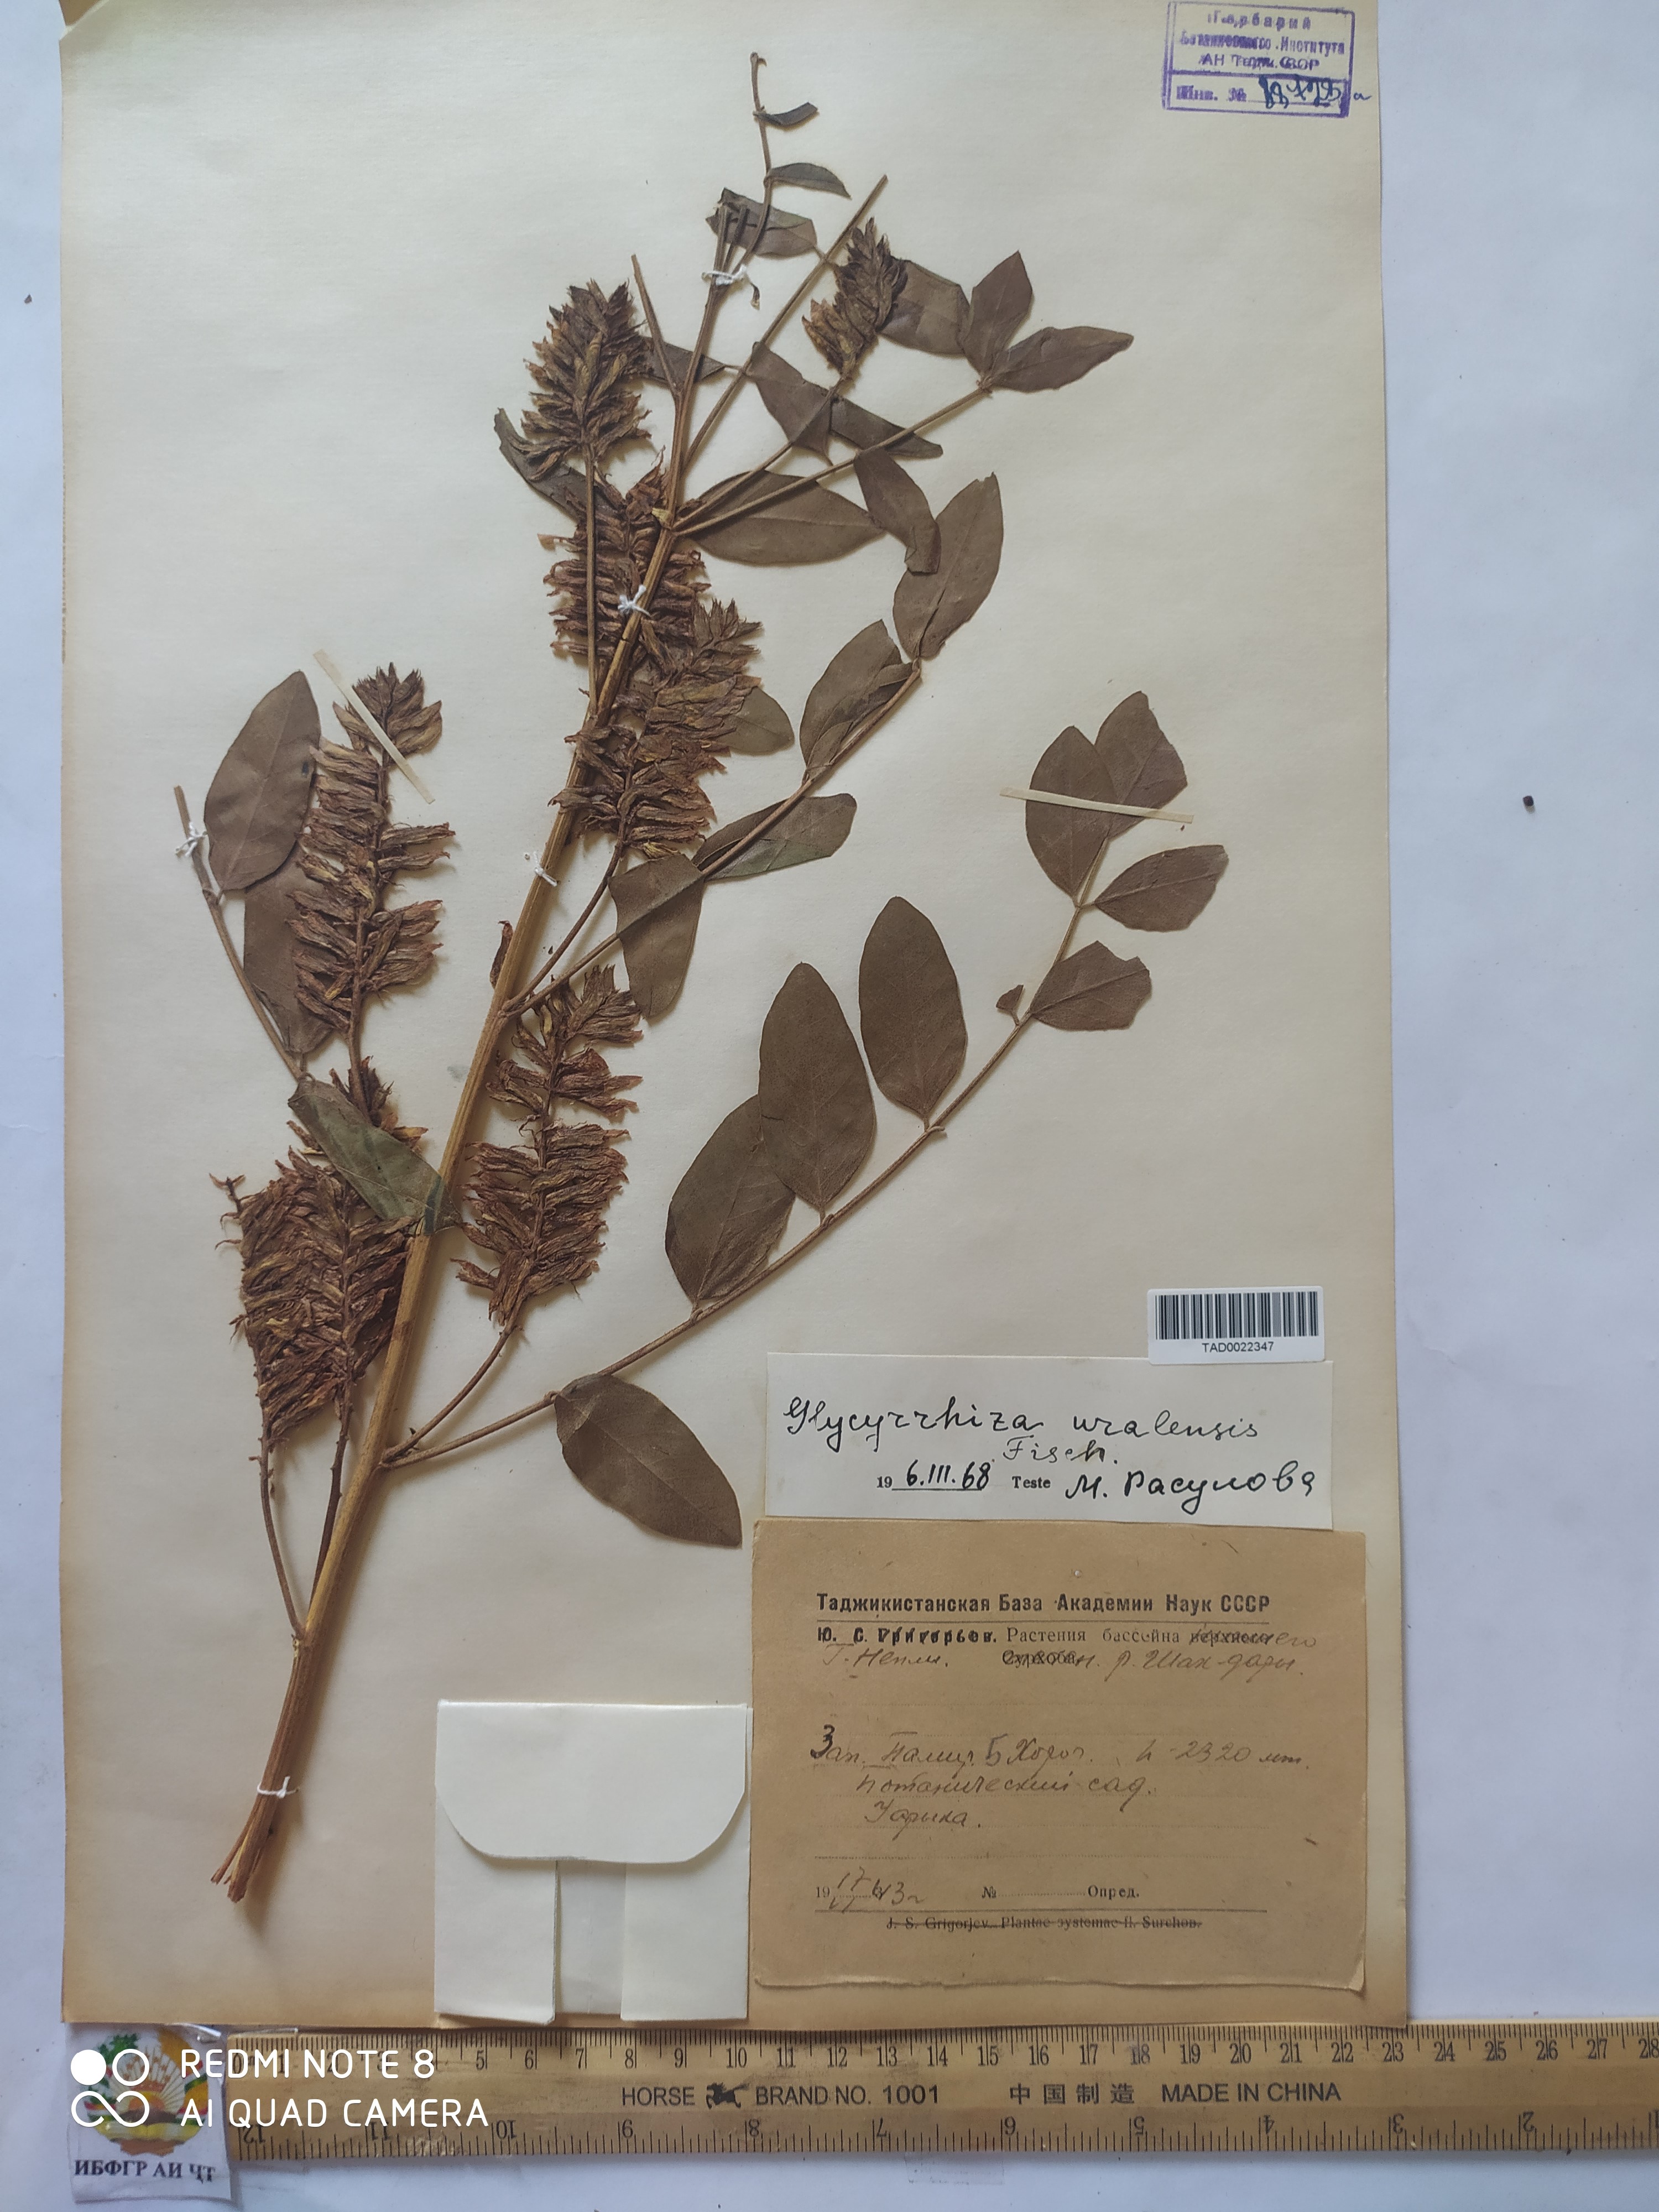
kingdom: Plantae
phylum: Tracheophyta
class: Magnoliopsida
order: Fabales
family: Fabaceae
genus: Glycyrrhiza
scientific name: Glycyrrhiza uralensis
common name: Chinese licorice
